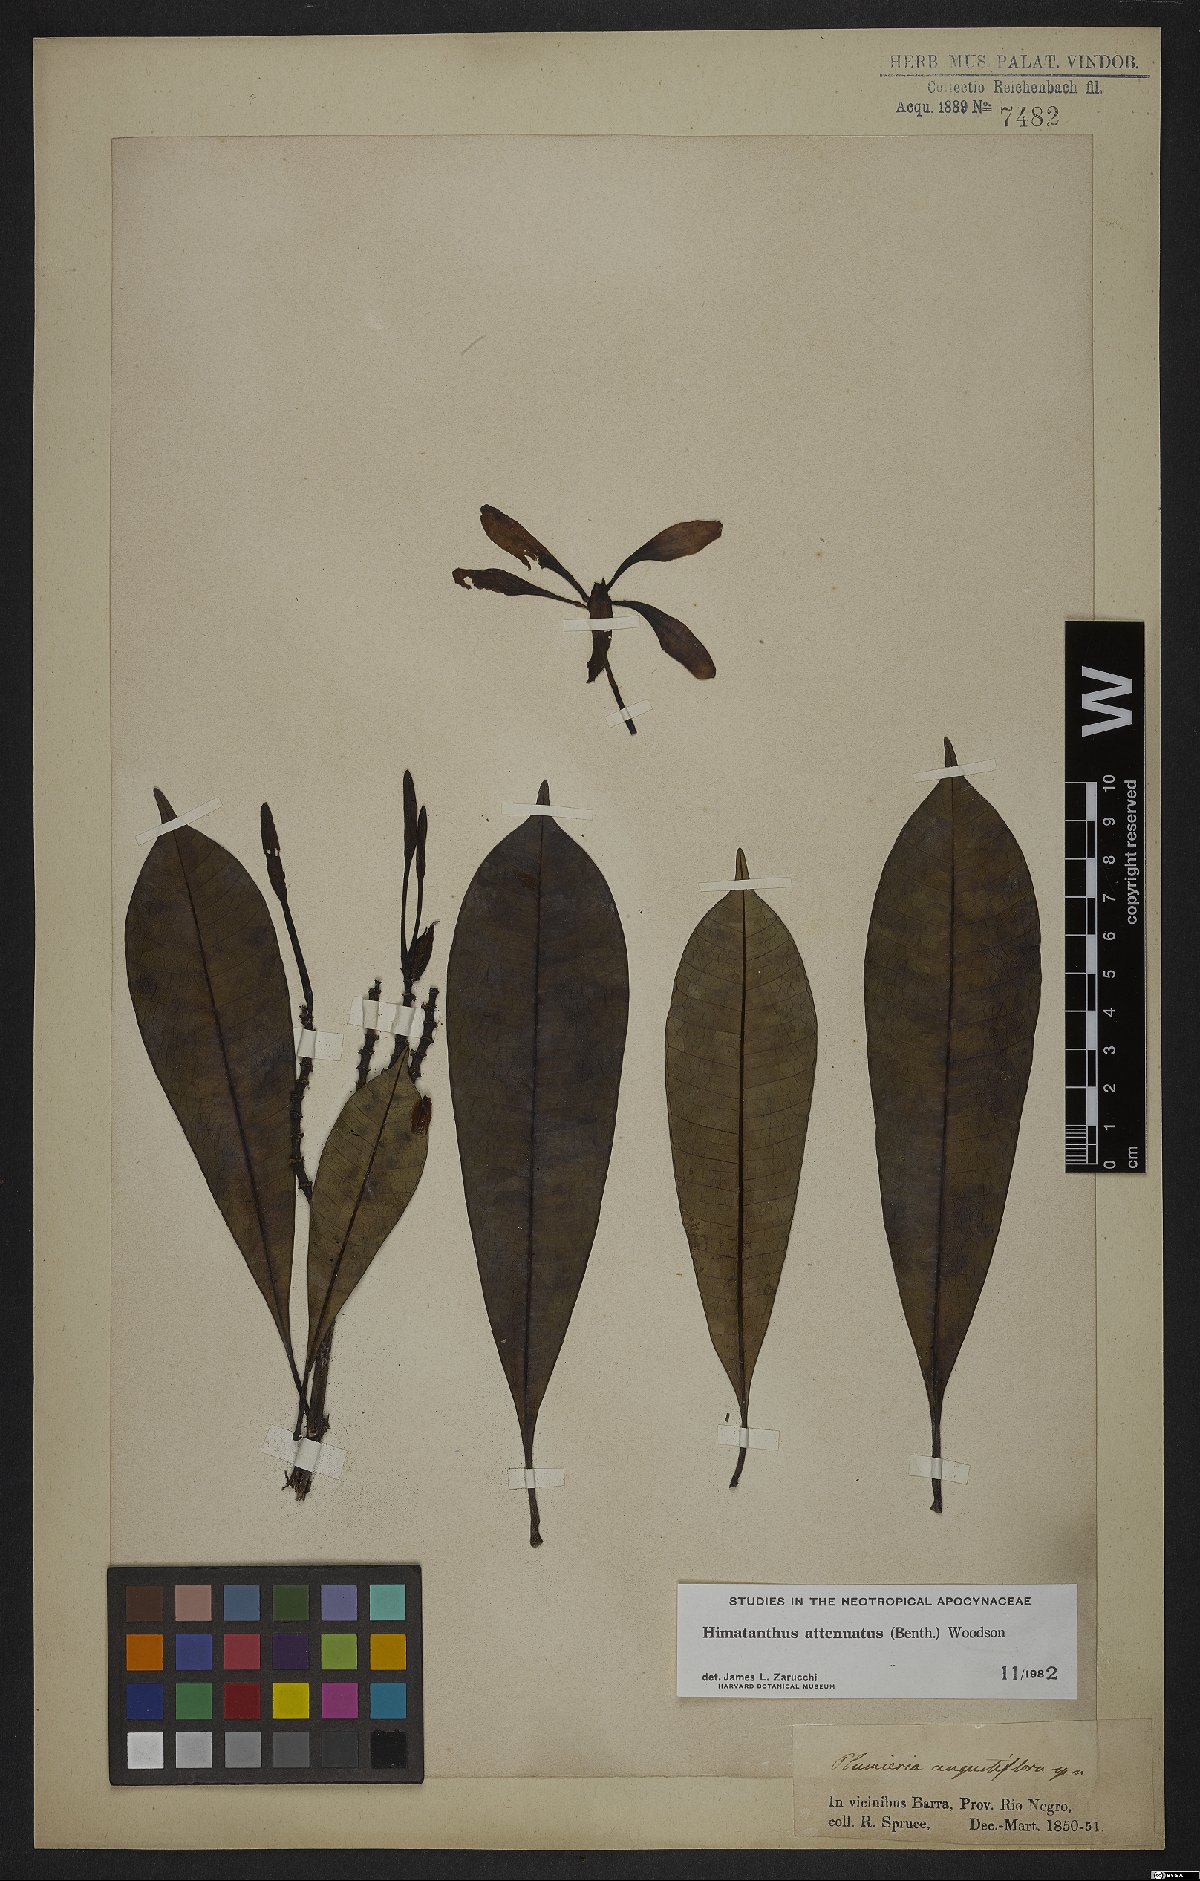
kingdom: Plantae
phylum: Tracheophyta
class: Magnoliopsida
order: Gentianales
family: Apocynaceae
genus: Himatanthus
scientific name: Himatanthus attenuatus
